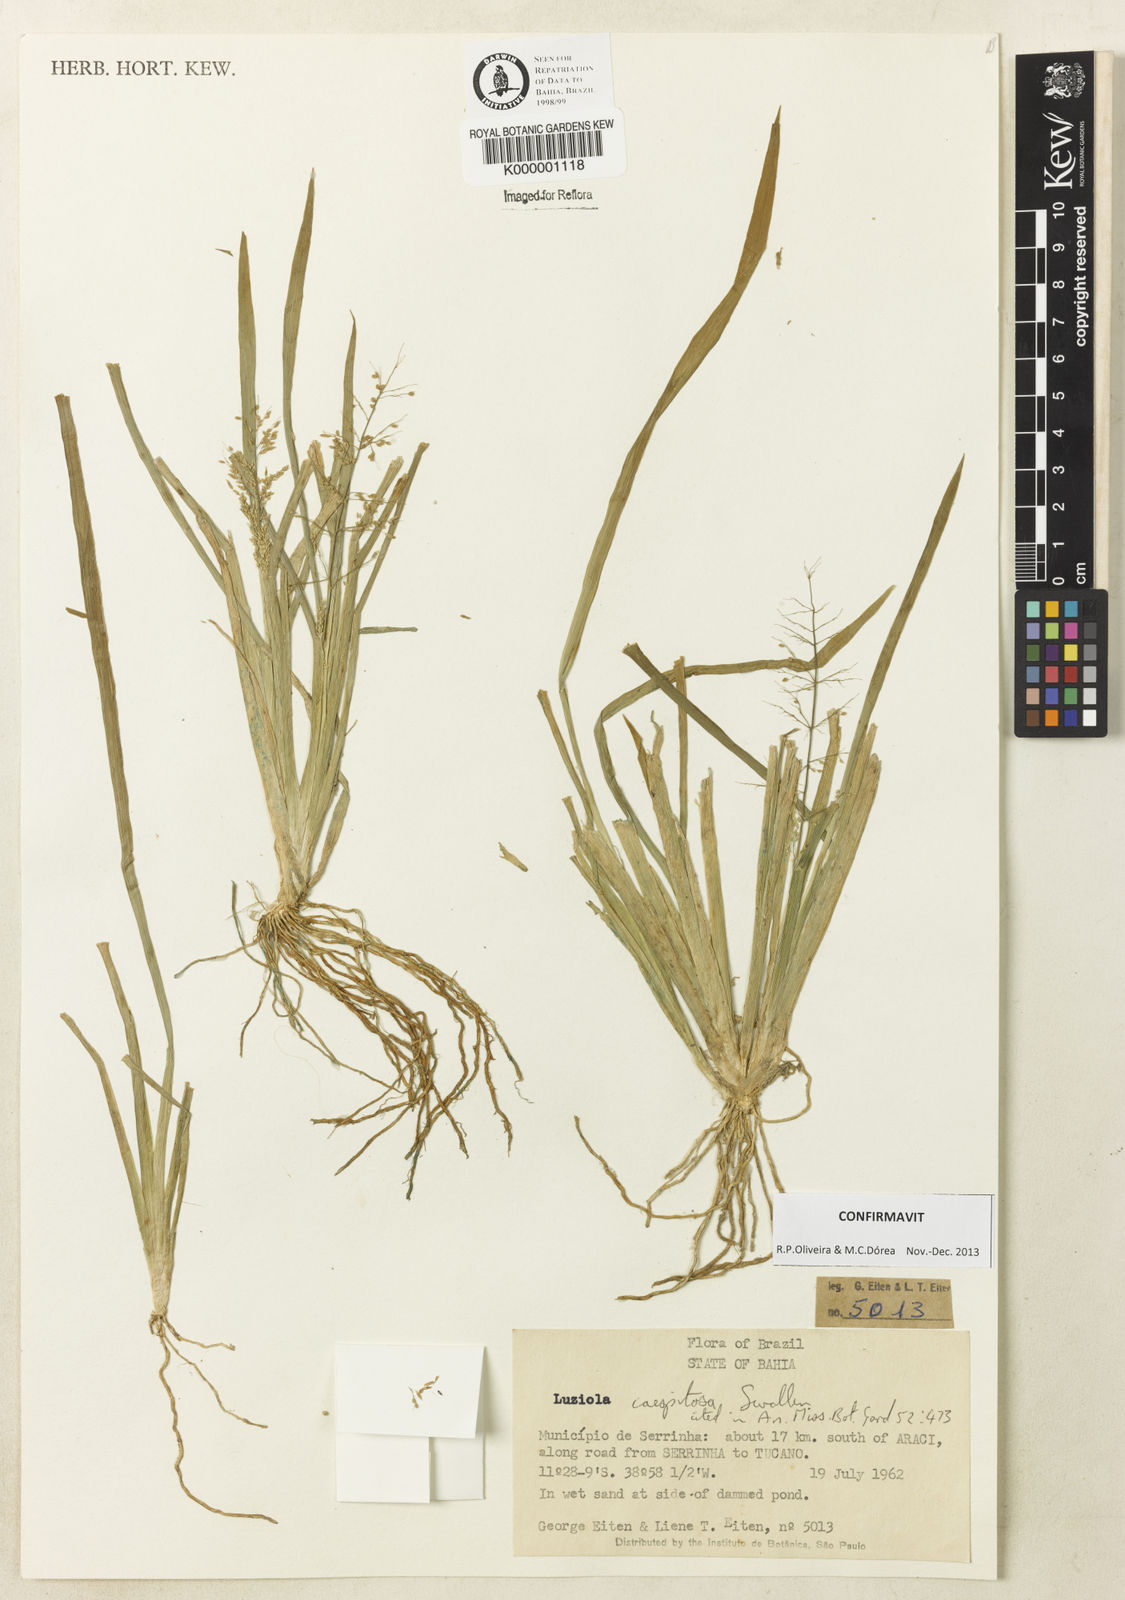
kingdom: Plantae
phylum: Tracheophyta
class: Liliopsida
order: Poales
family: Poaceae
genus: Luziola
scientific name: Luziola caespitosa
